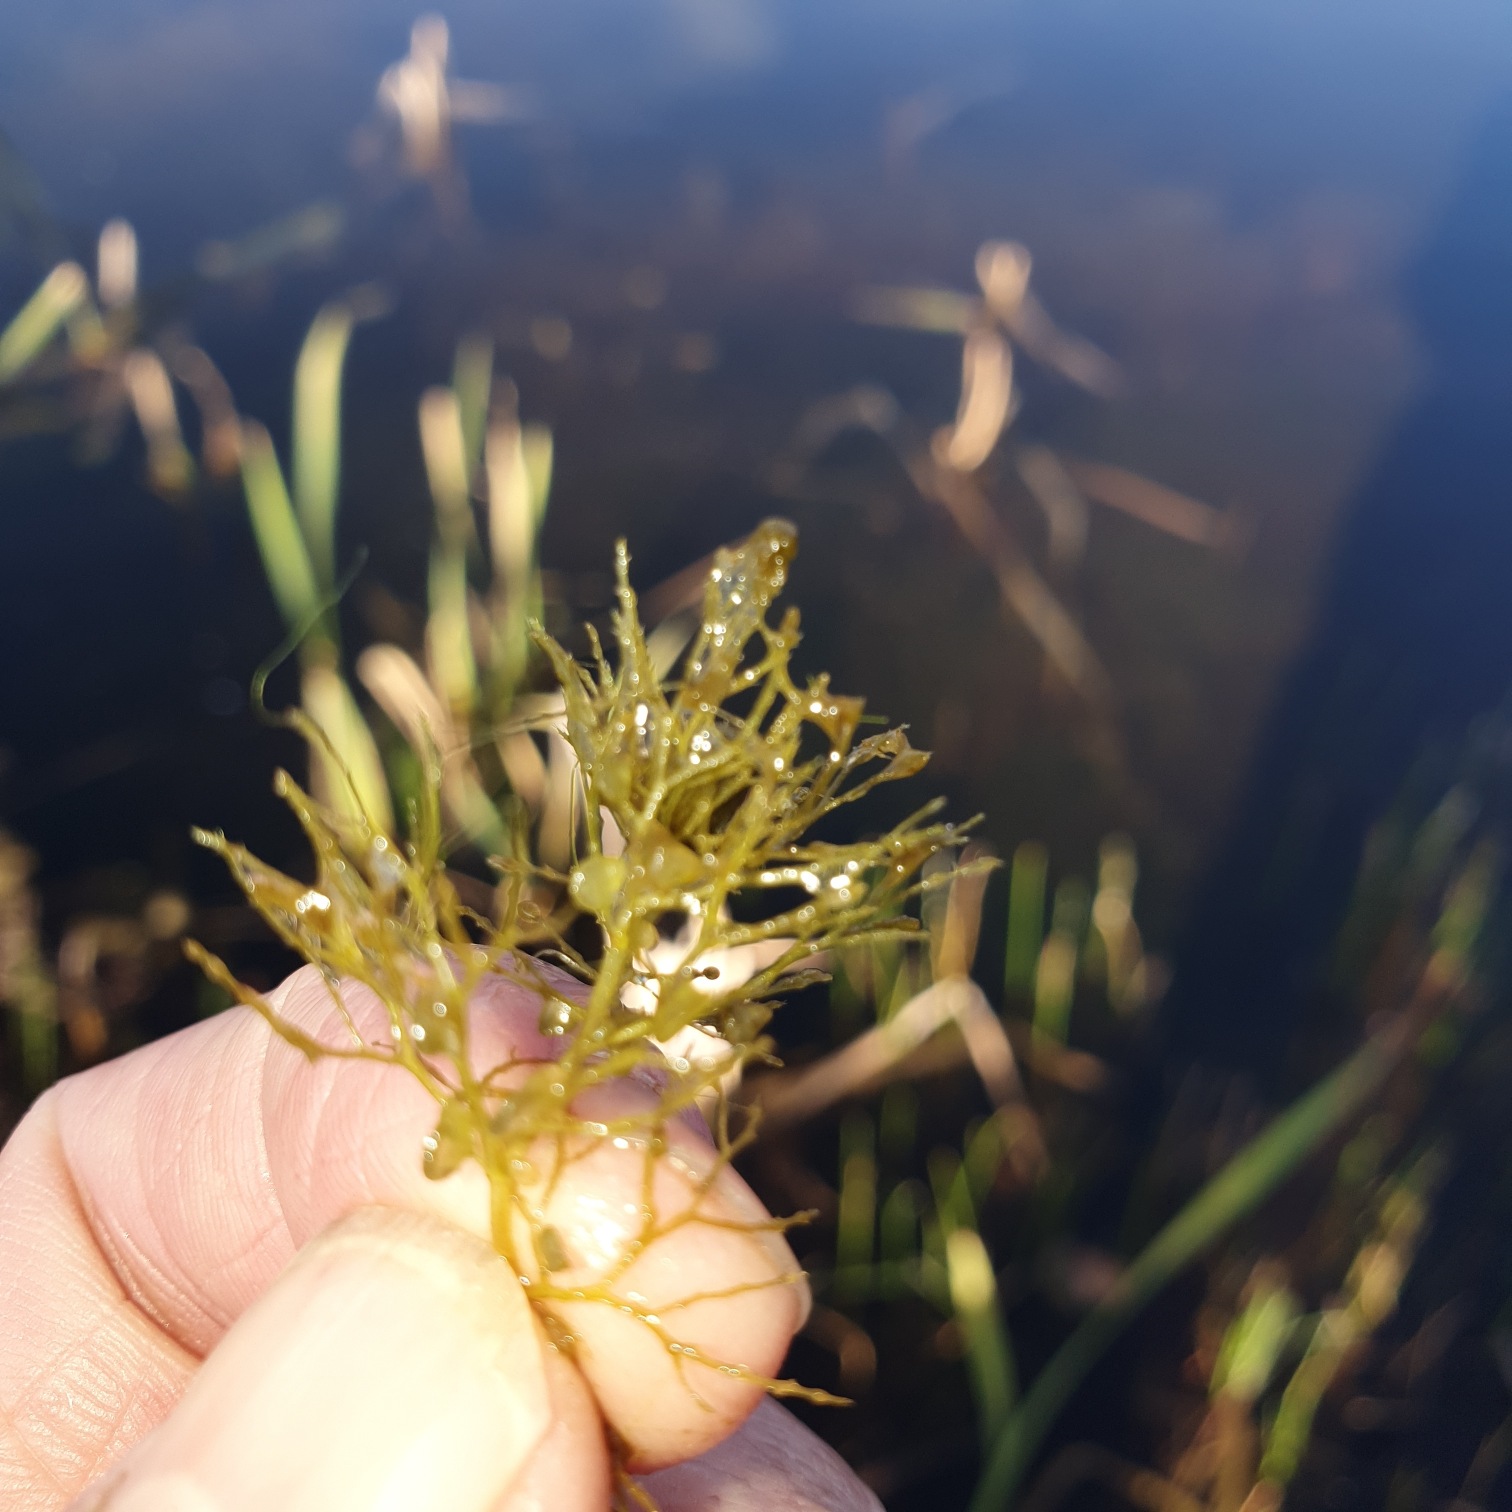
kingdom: Plantae
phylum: Tracheophyta
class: Magnoliopsida
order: Lamiales
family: Lentibulariaceae
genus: Utricularia
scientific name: Utricularia
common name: Blærerodslægten
